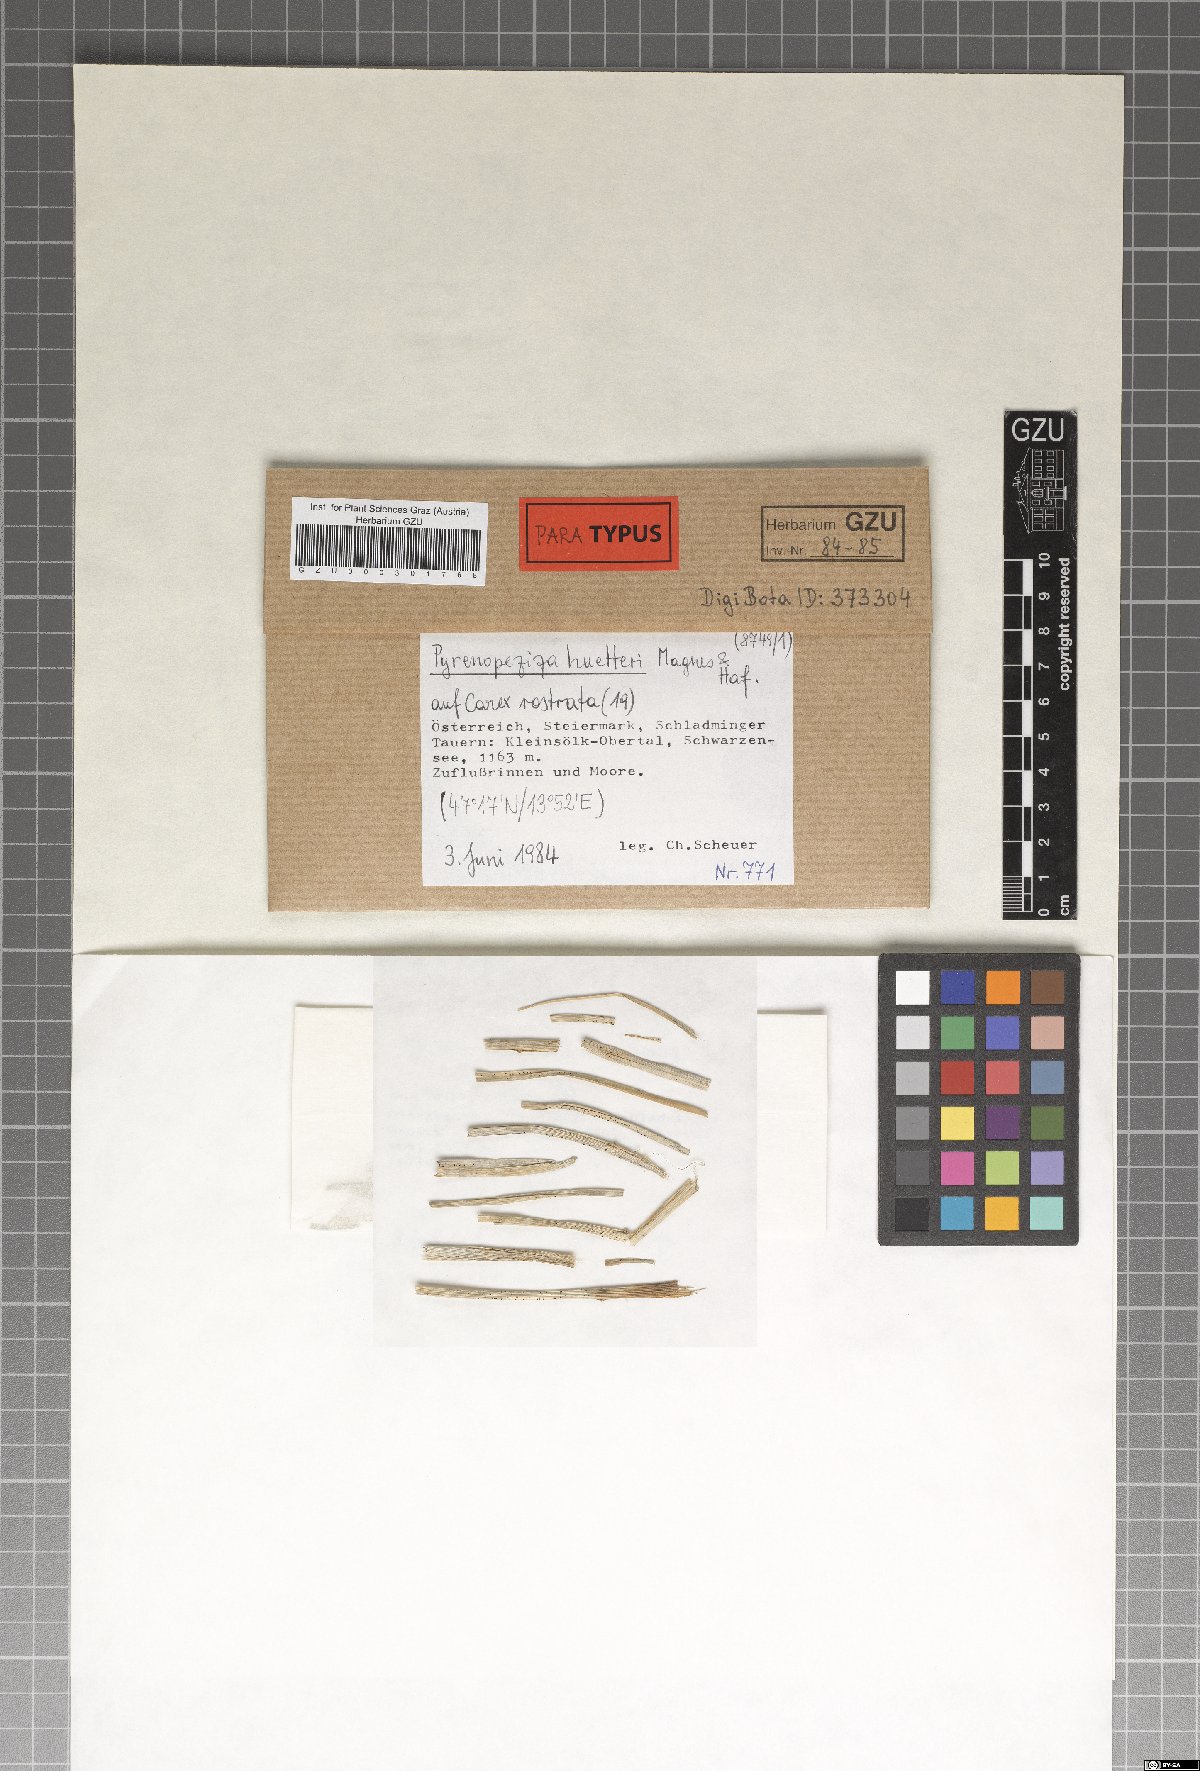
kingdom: Fungi
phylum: Ascomycota
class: Leotiomycetes
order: Helotiales
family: Ploettnerulaceae
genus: Pyrenopeziza
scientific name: Pyrenopeziza huetteri
